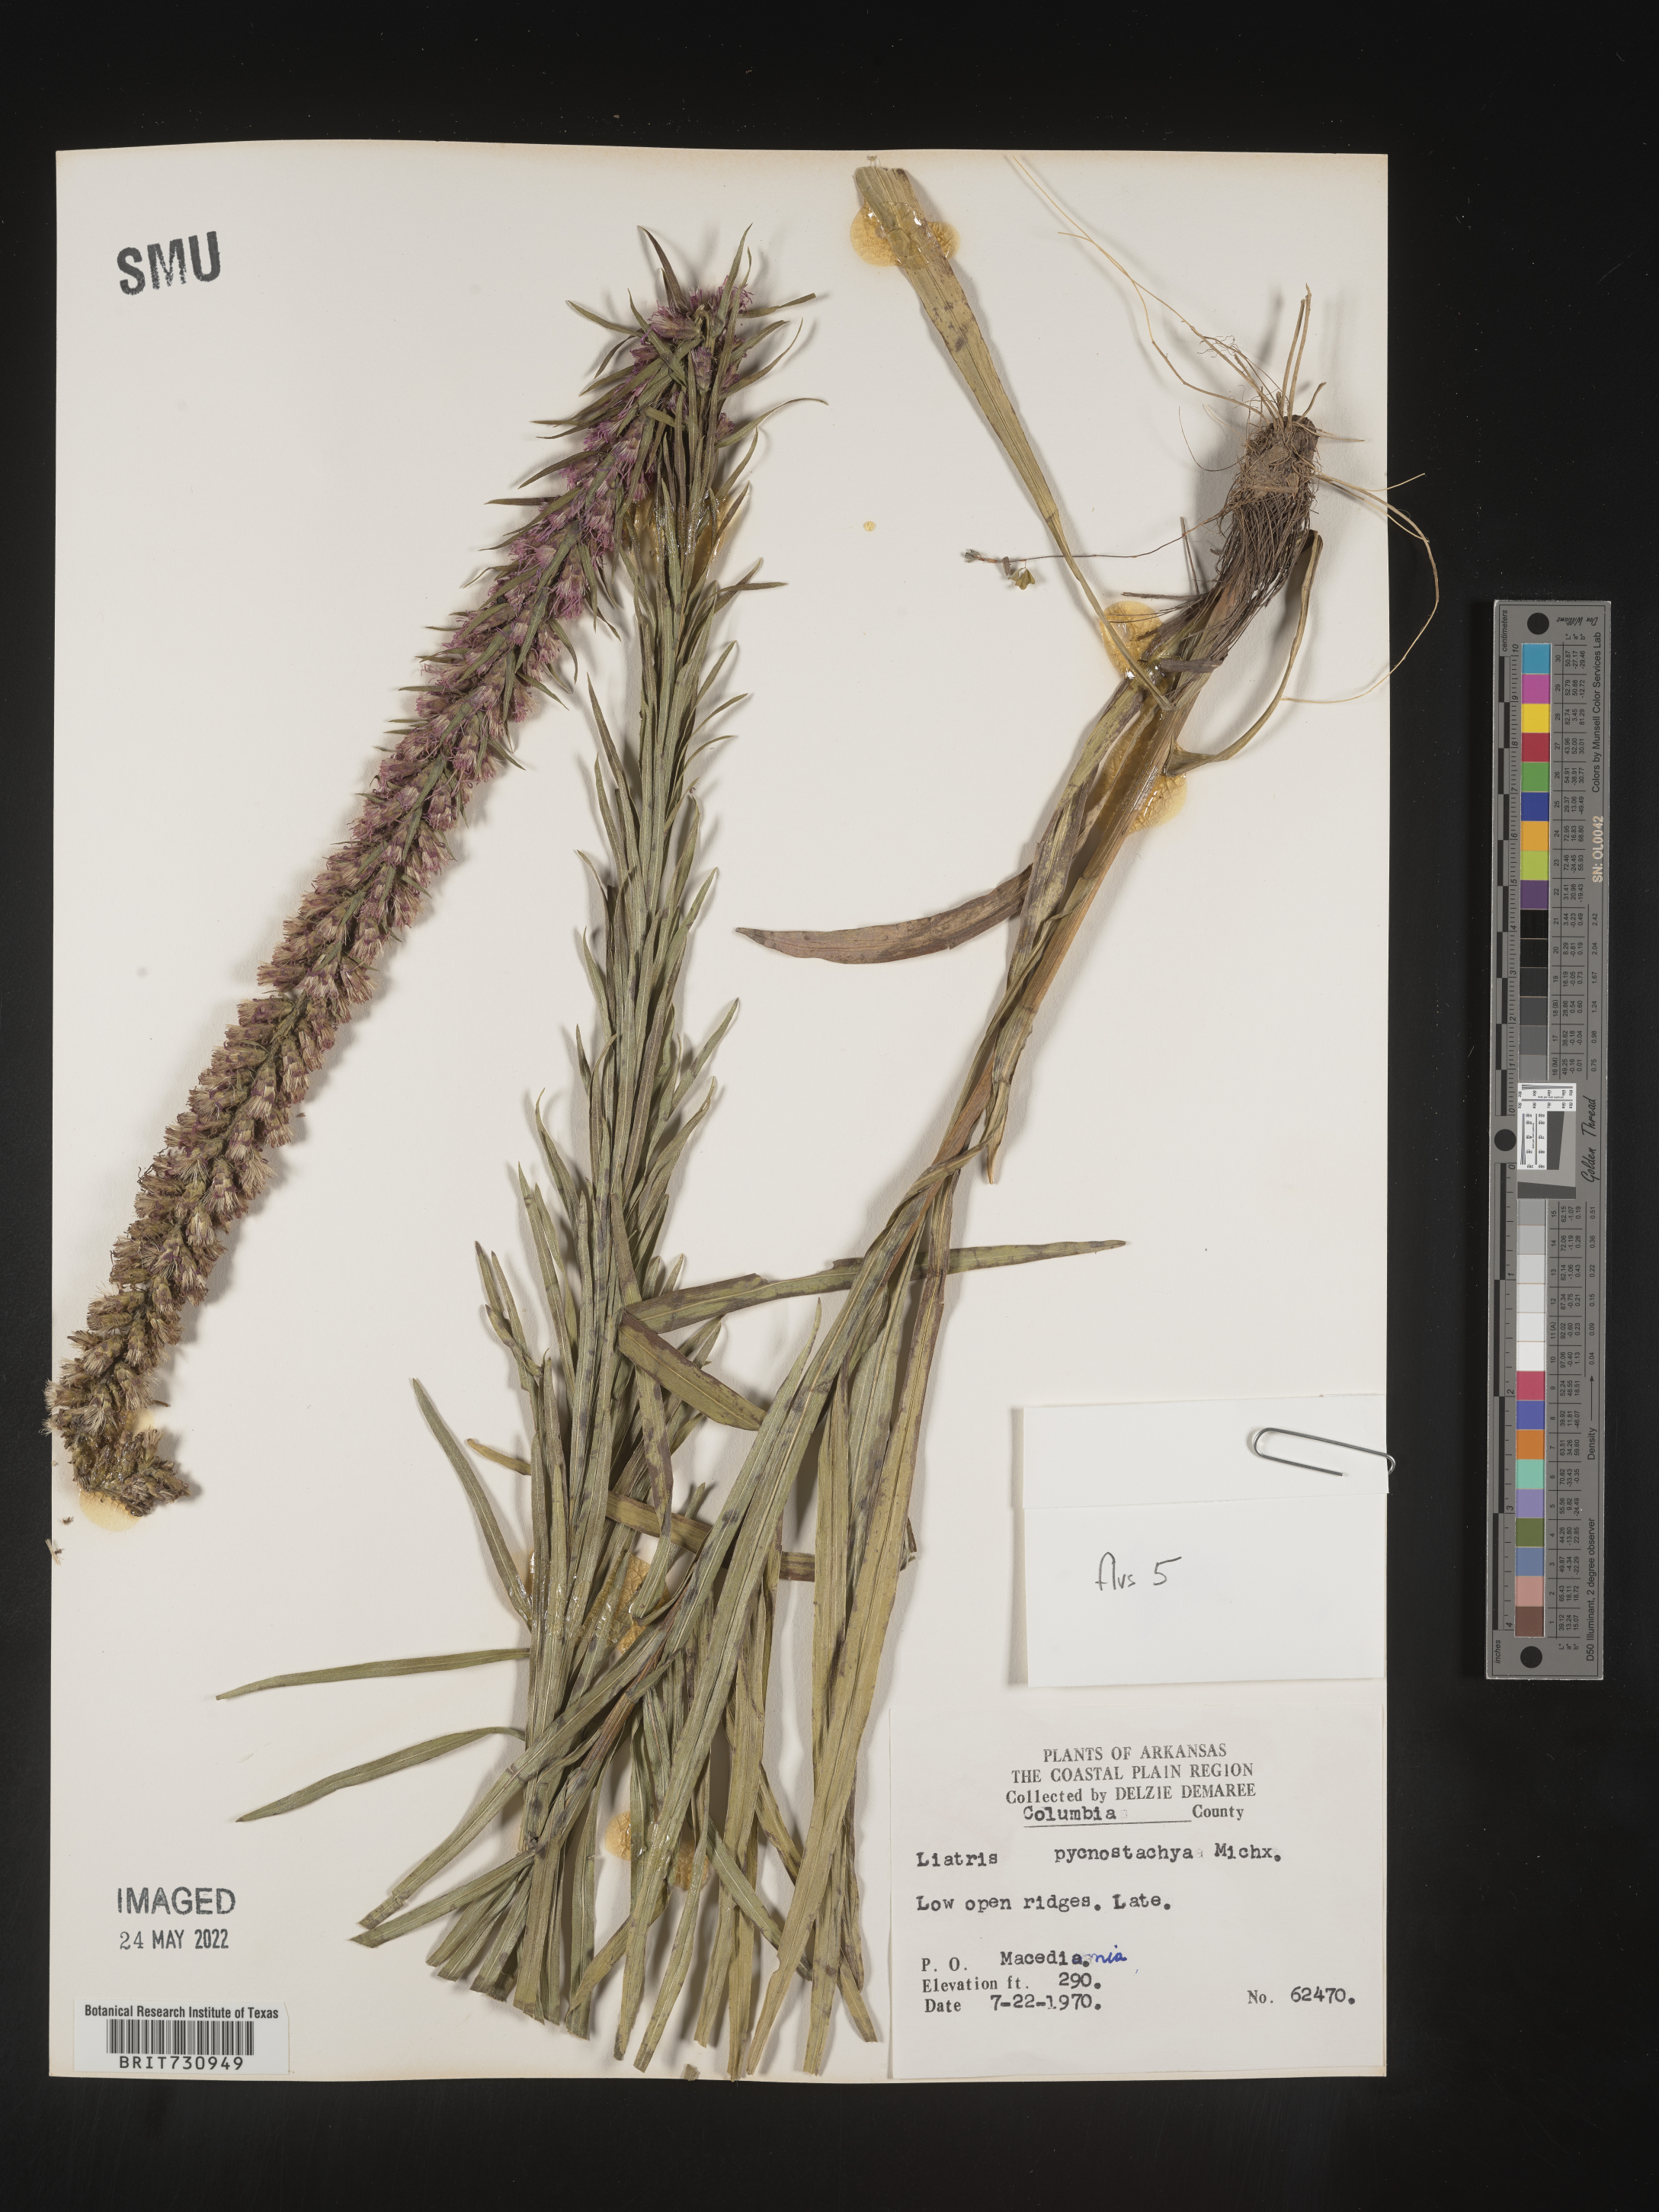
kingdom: Plantae
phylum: Tracheophyta
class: Magnoliopsida
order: Asterales
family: Asteraceae
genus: Liatris
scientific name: Liatris pycnostachya
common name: Cattail gayfeather
